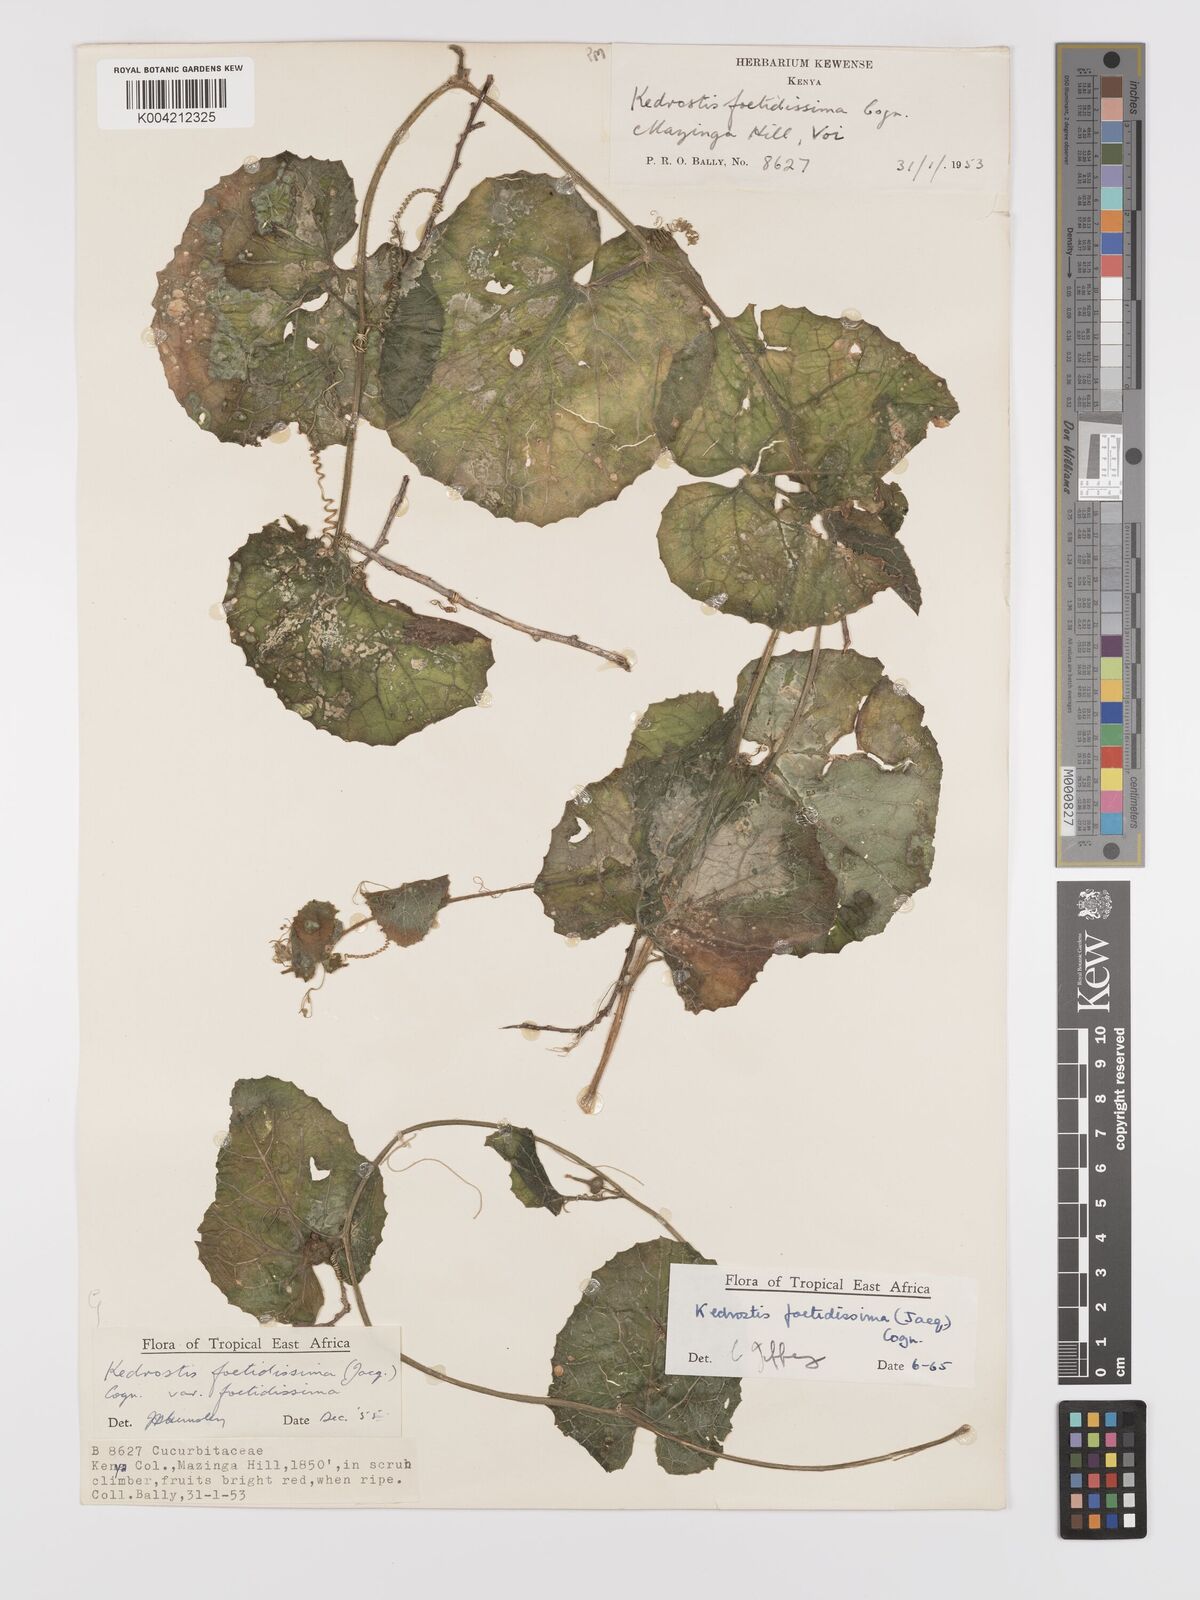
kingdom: Plantae
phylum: Tracheophyta
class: Magnoliopsida
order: Cucurbitales
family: Cucurbitaceae
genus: Kedrostis
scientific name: Kedrostis foetidissima
